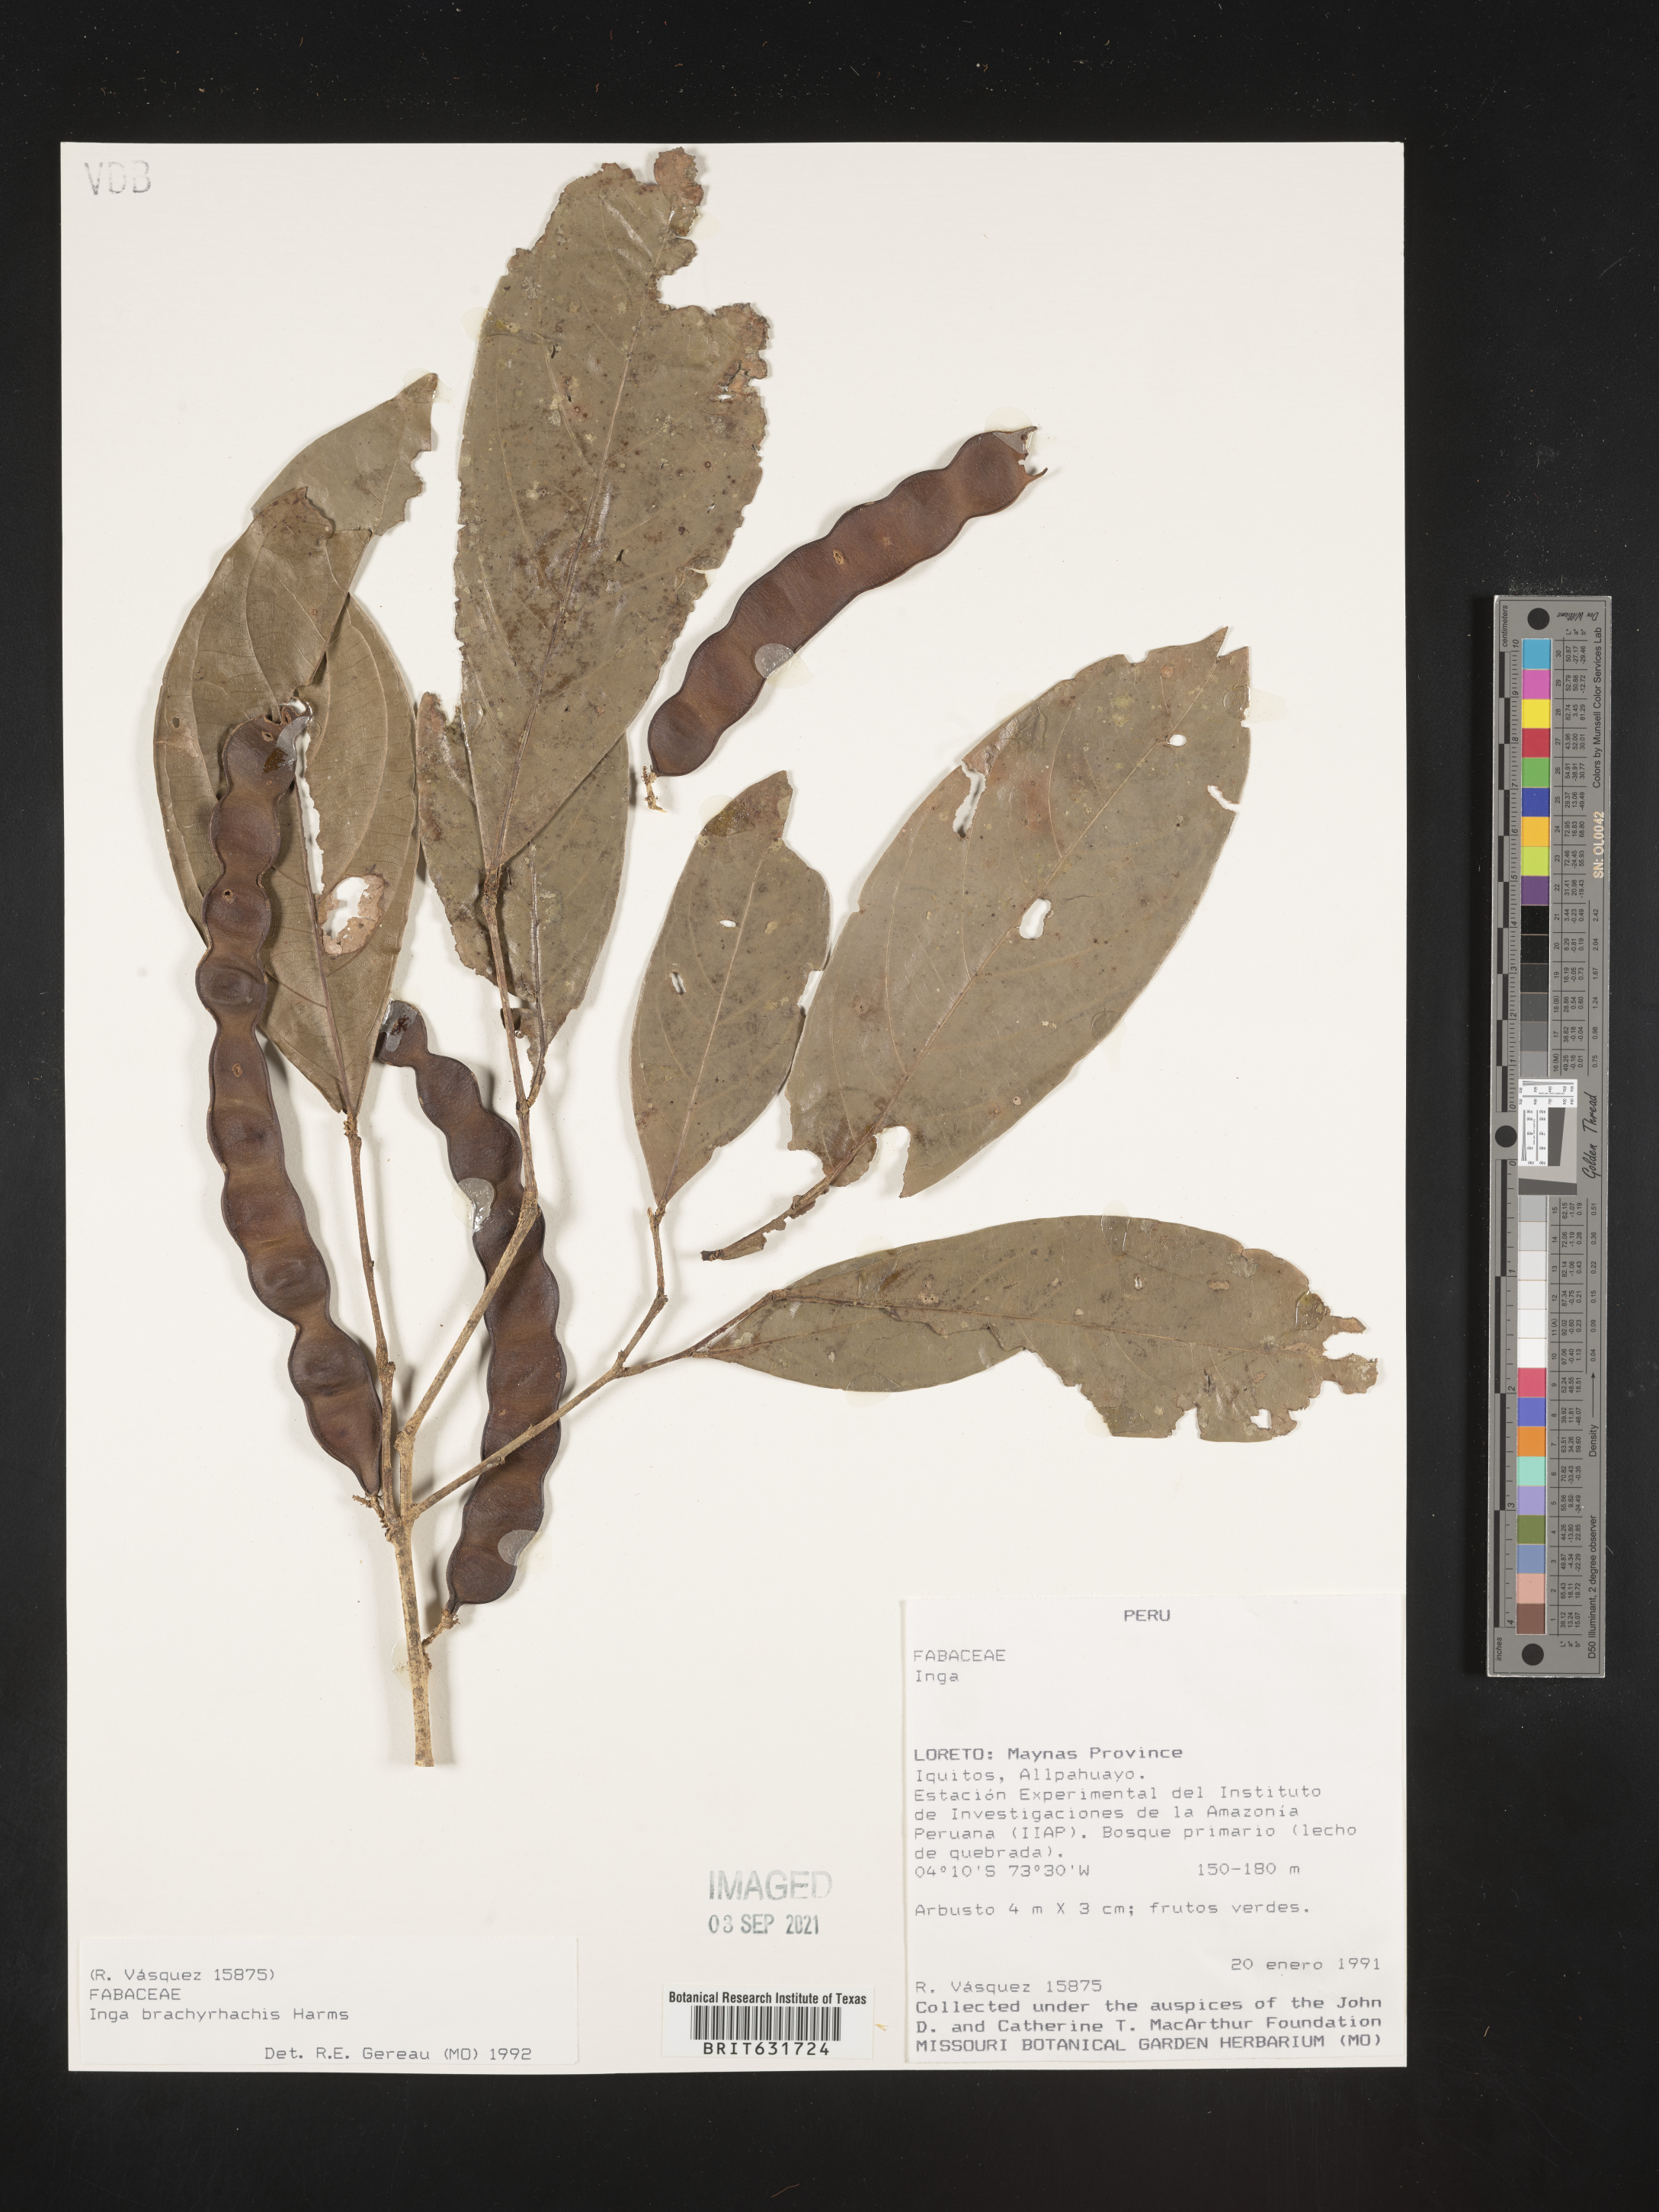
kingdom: Plantae
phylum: Tracheophyta
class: Magnoliopsida
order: Fabales
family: Fabaceae
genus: Inga
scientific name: Inga
